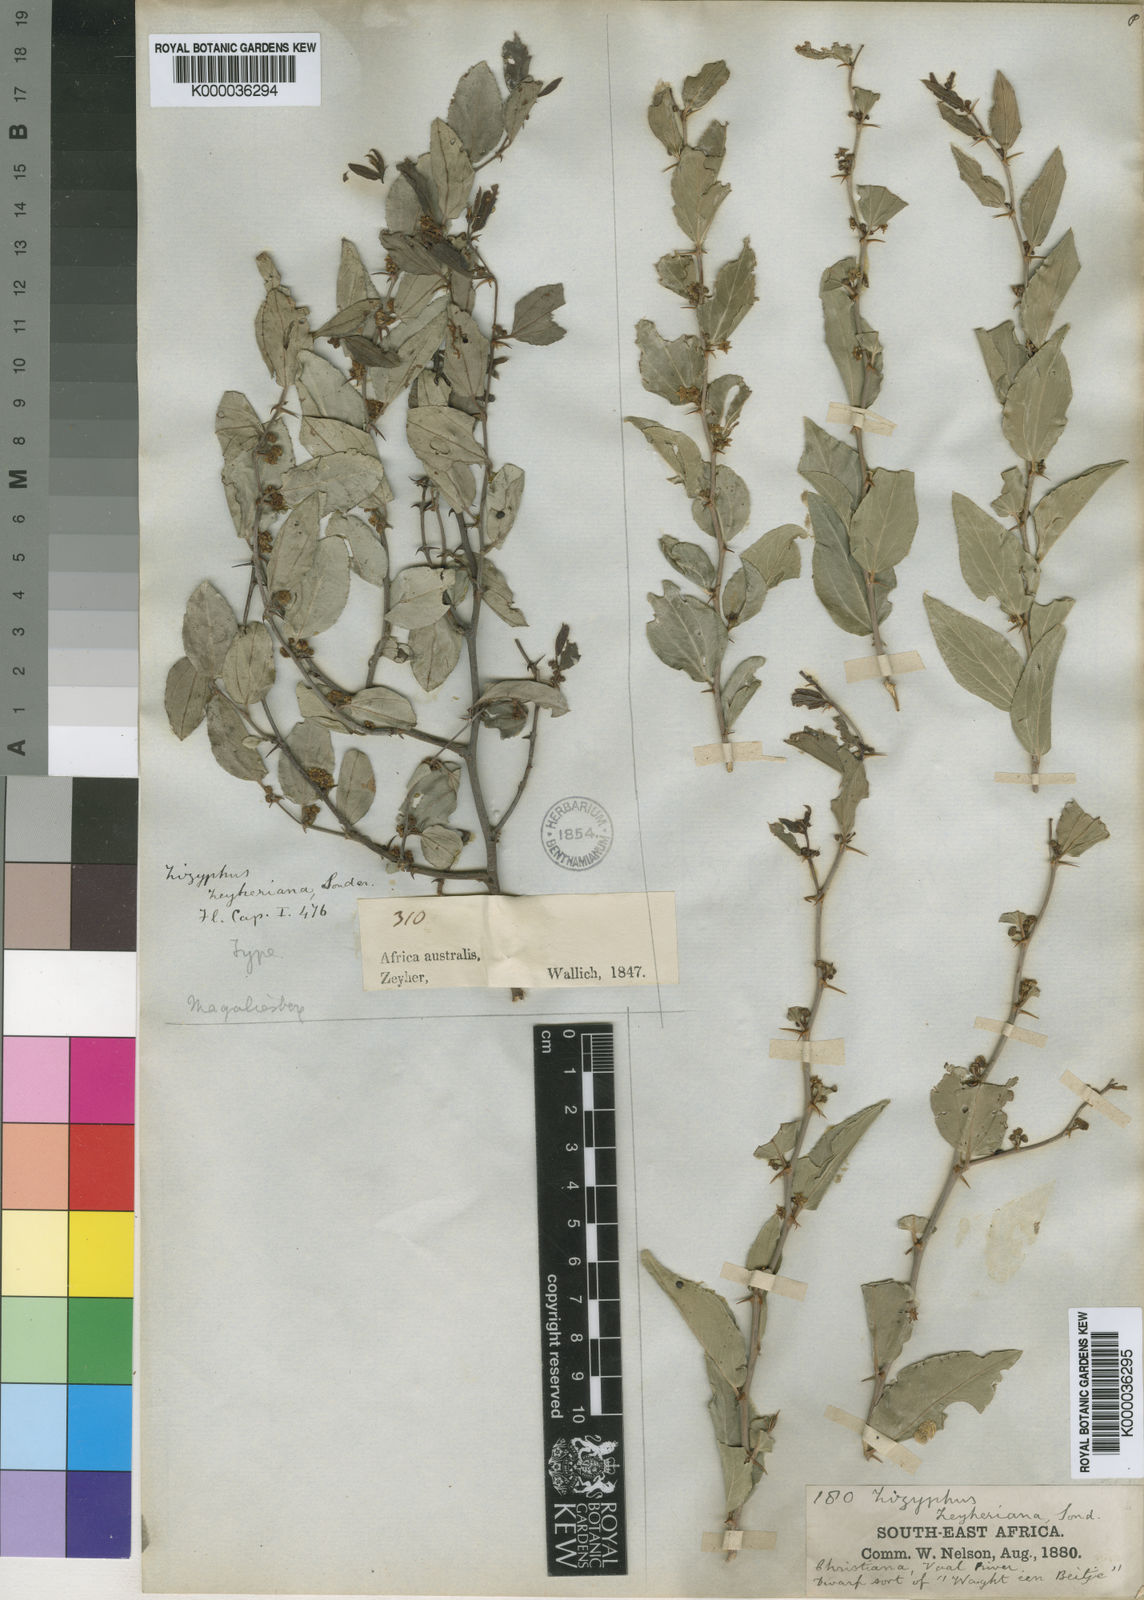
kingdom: Plantae
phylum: Tracheophyta
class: Magnoliopsida
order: Rosales
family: Rhamnaceae
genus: Ziziphus
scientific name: Ziziphus zeyheriana
